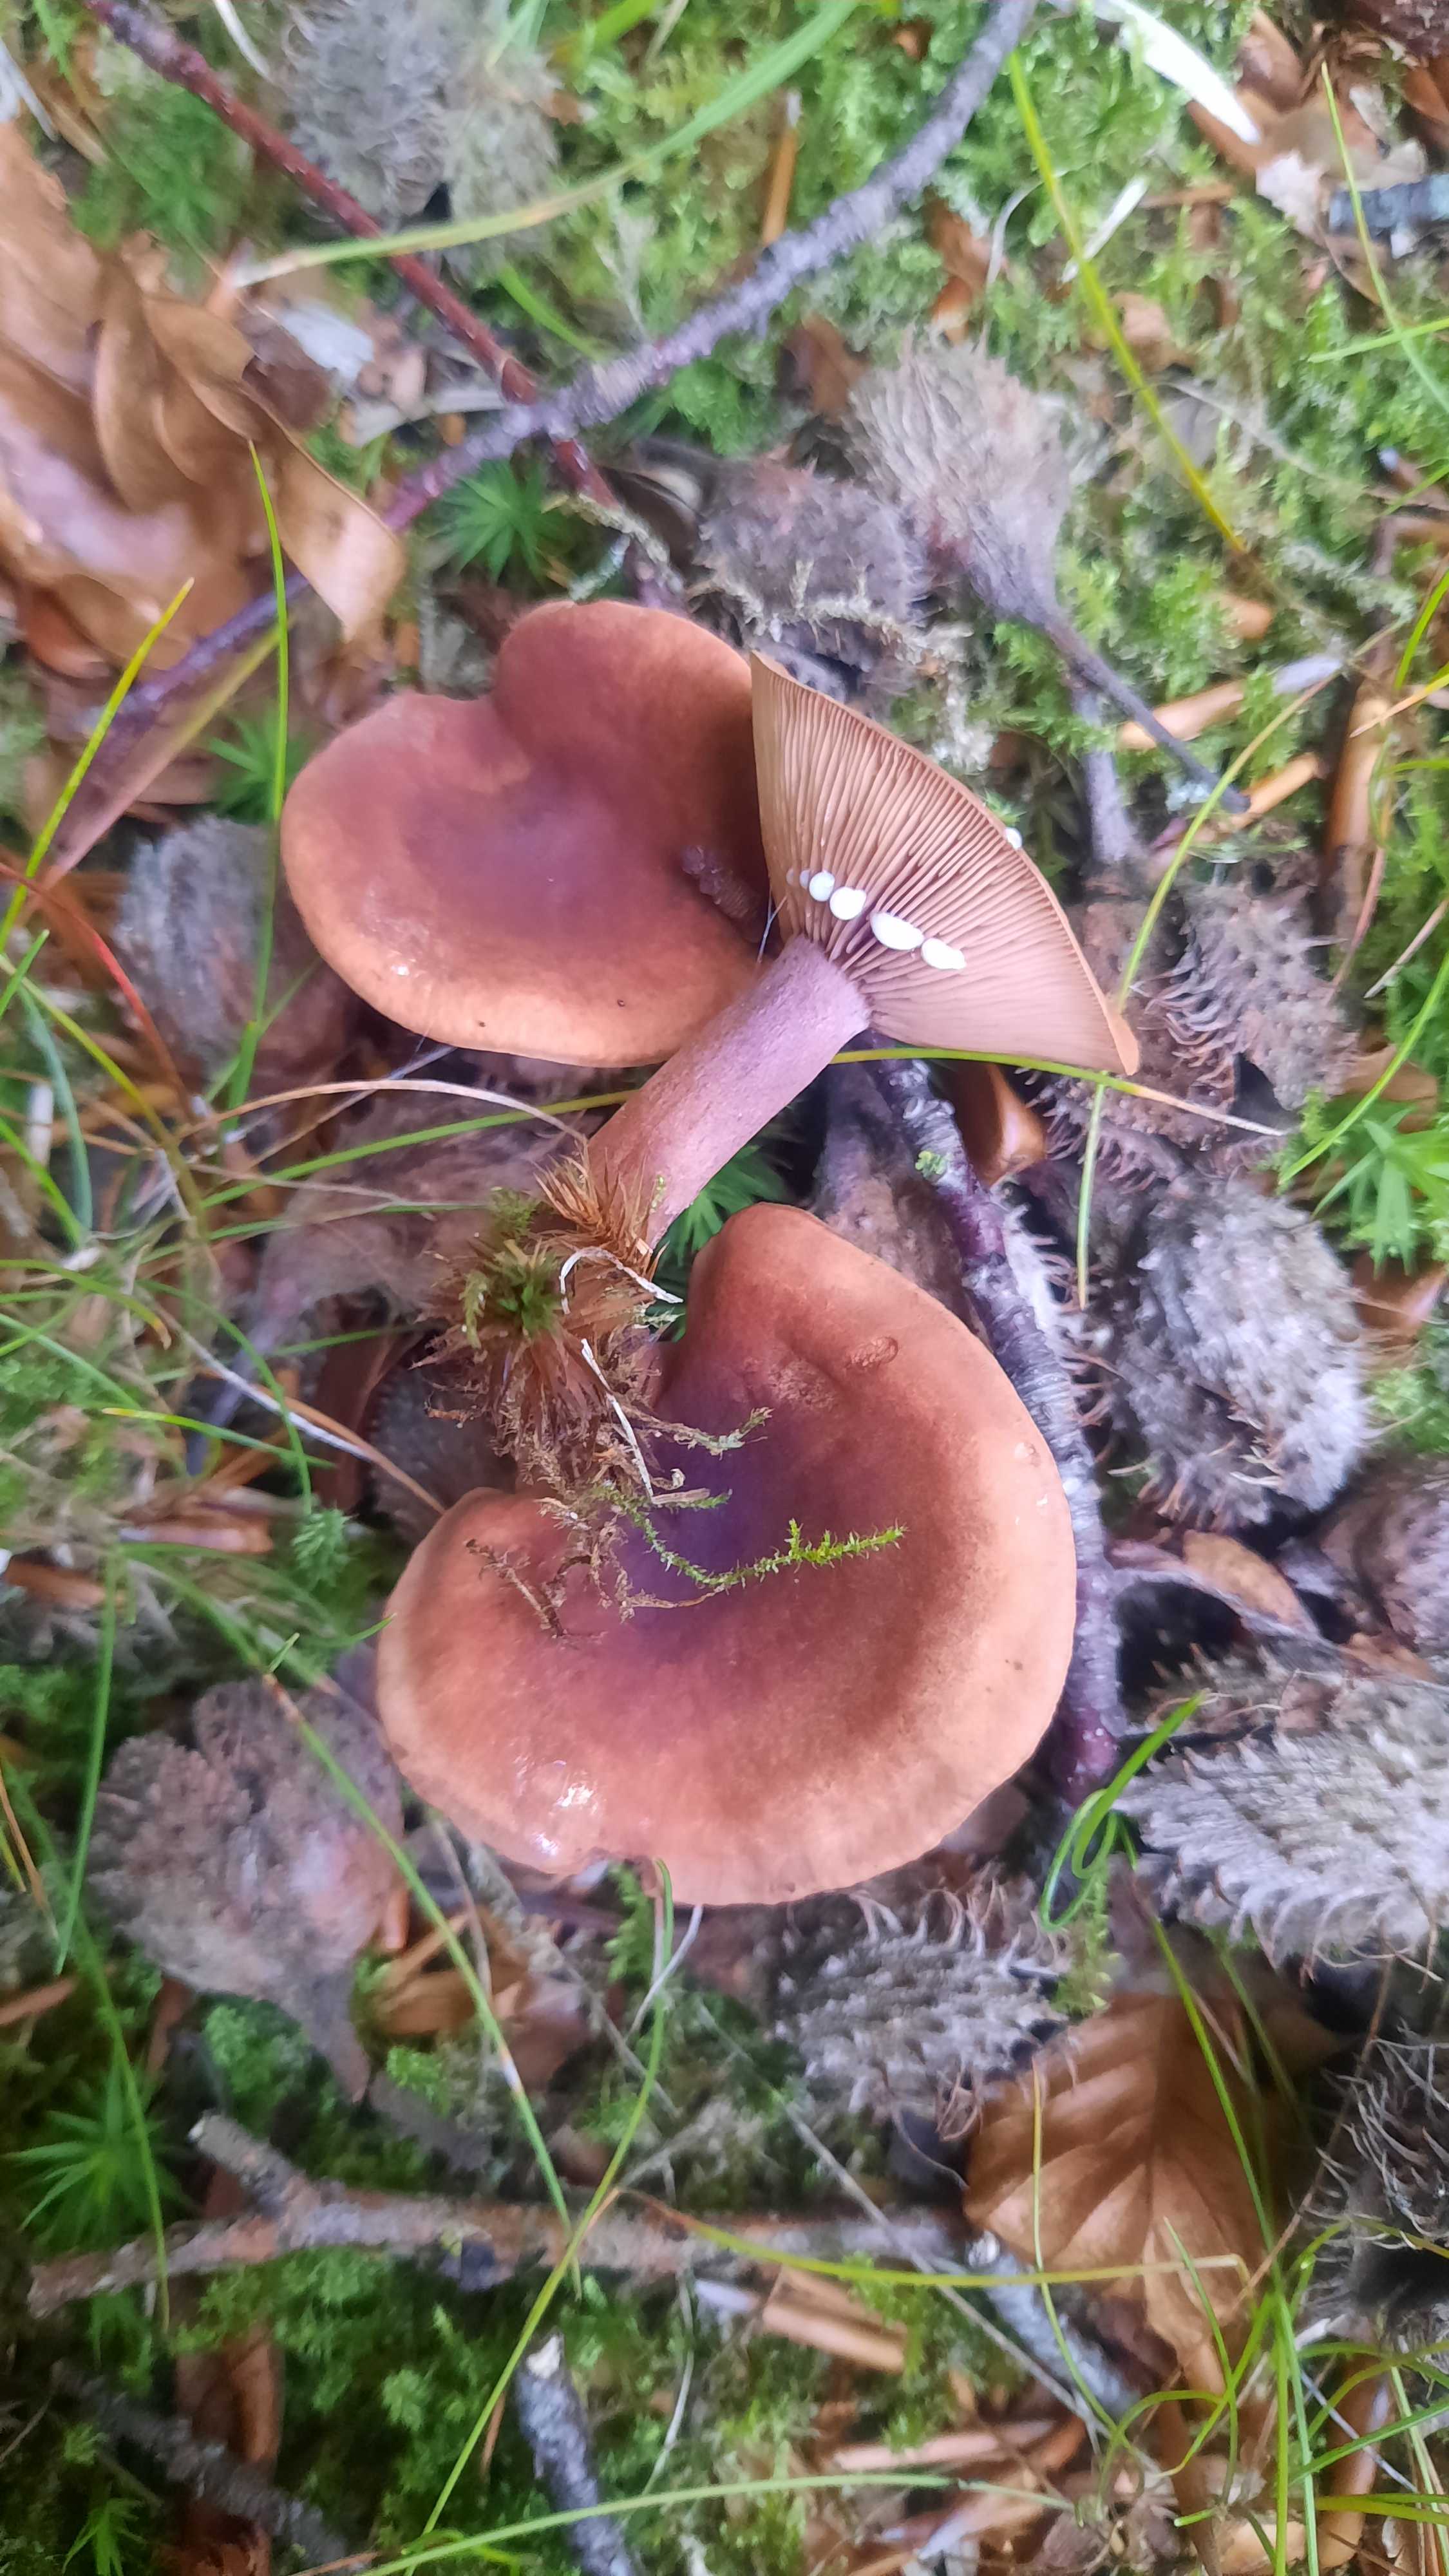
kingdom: Fungi
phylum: Basidiomycota
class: Agaricomycetes
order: Russulales
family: Russulaceae
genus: Lactarius
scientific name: Lactarius camphoratus
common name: kamfer-mælkehat
